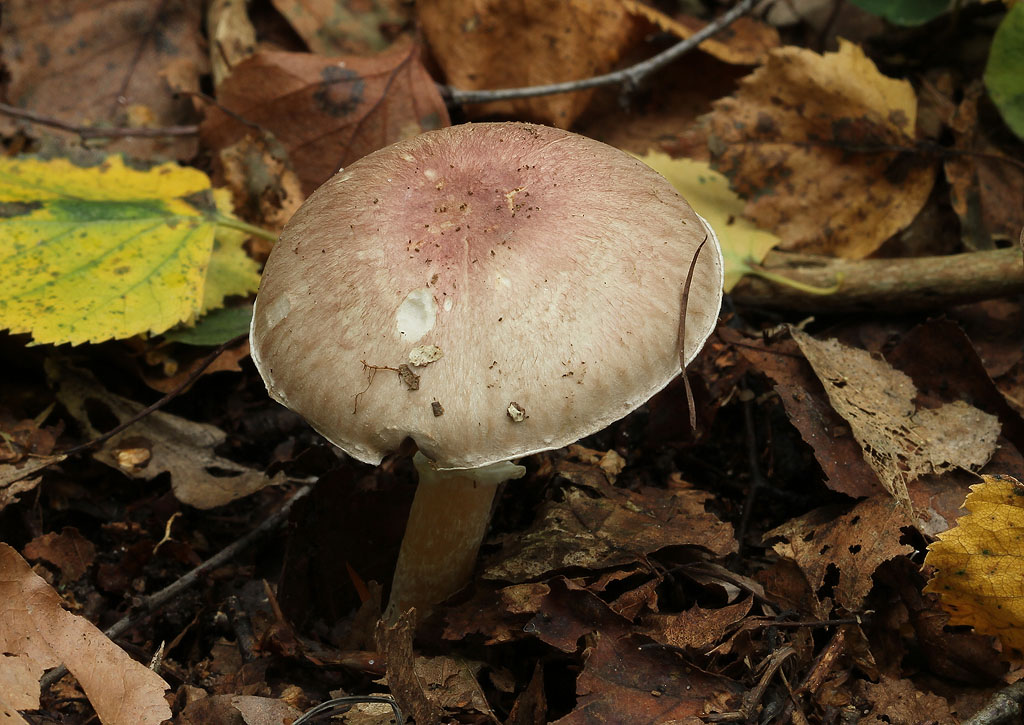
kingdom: Fungi
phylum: Basidiomycota
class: Agaricomycetes
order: Agaricales
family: Agaricaceae
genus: Agaricus
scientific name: Agaricus dulcidulus
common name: blegrød champignon
